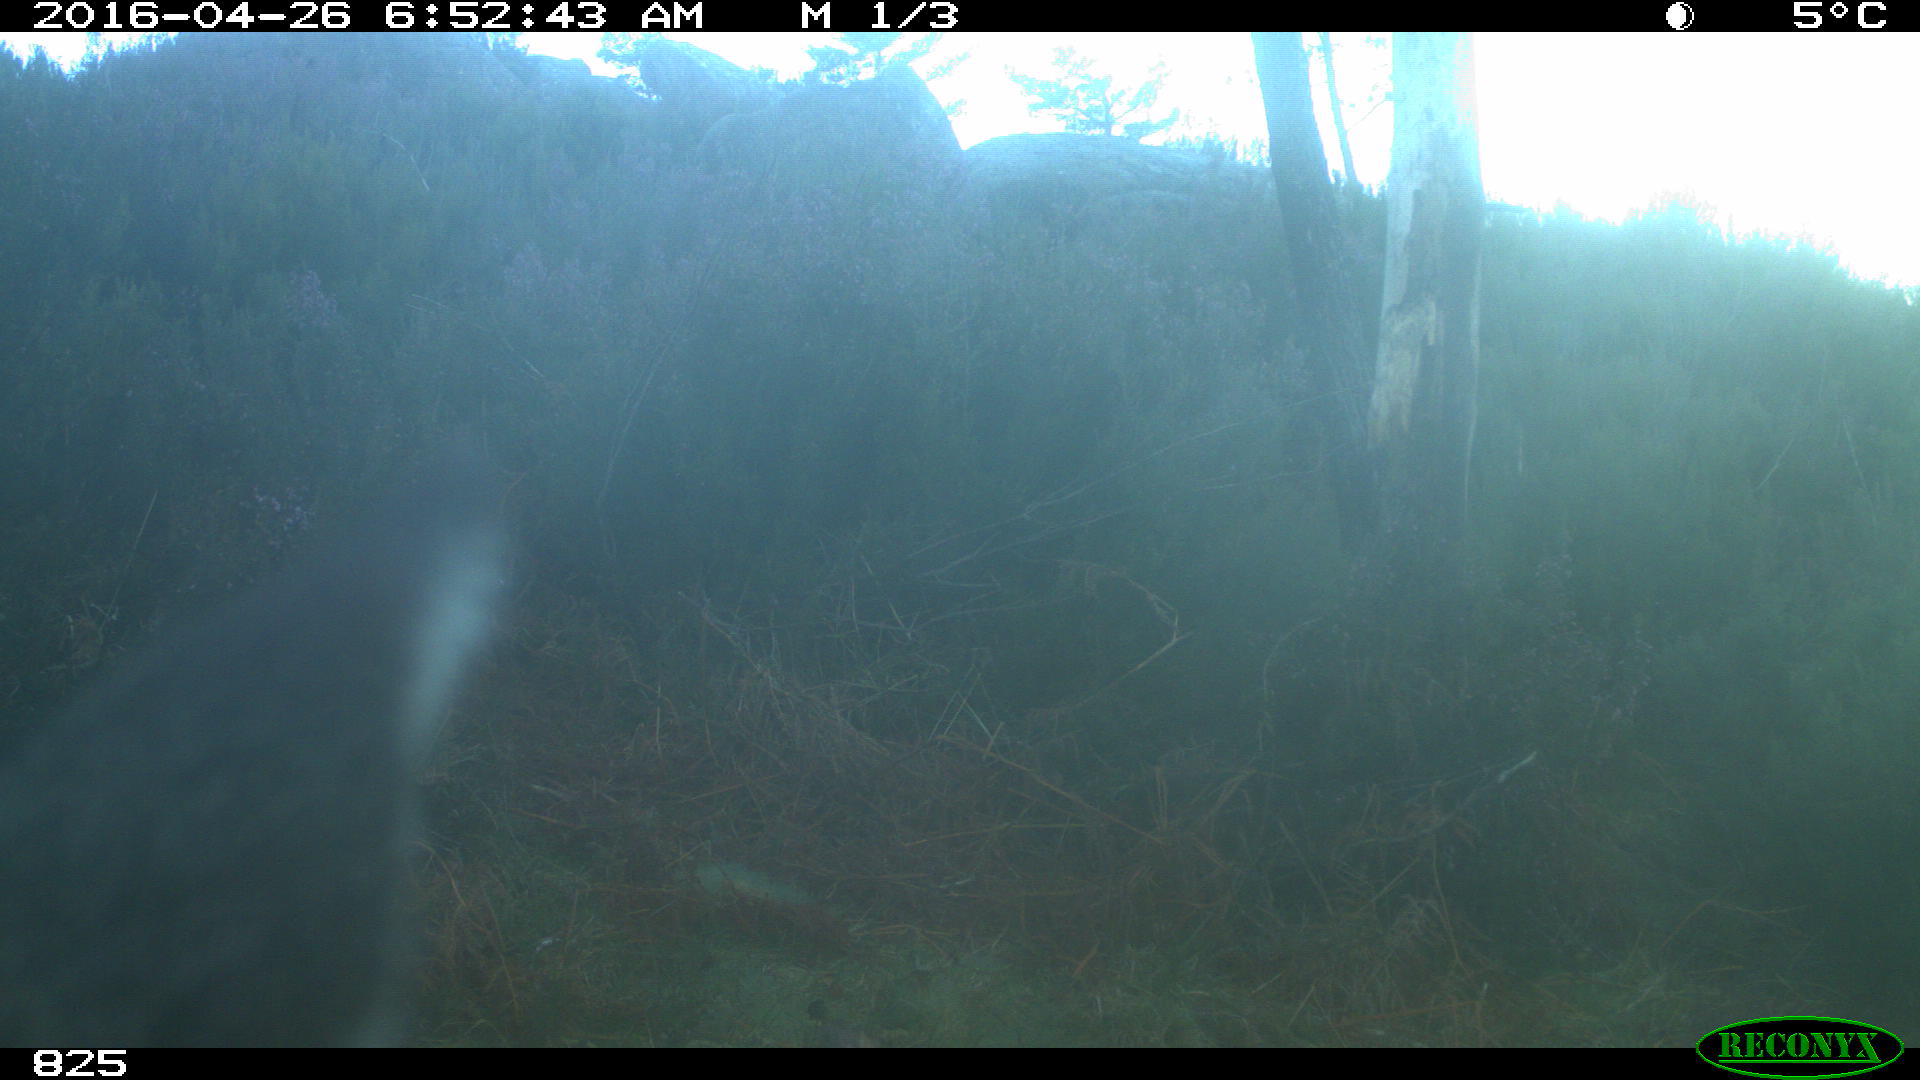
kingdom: Animalia
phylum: Chordata
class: Mammalia
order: Artiodactyla
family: Cervidae
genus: Capreolus
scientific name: Capreolus capreolus
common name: Western roe deer
